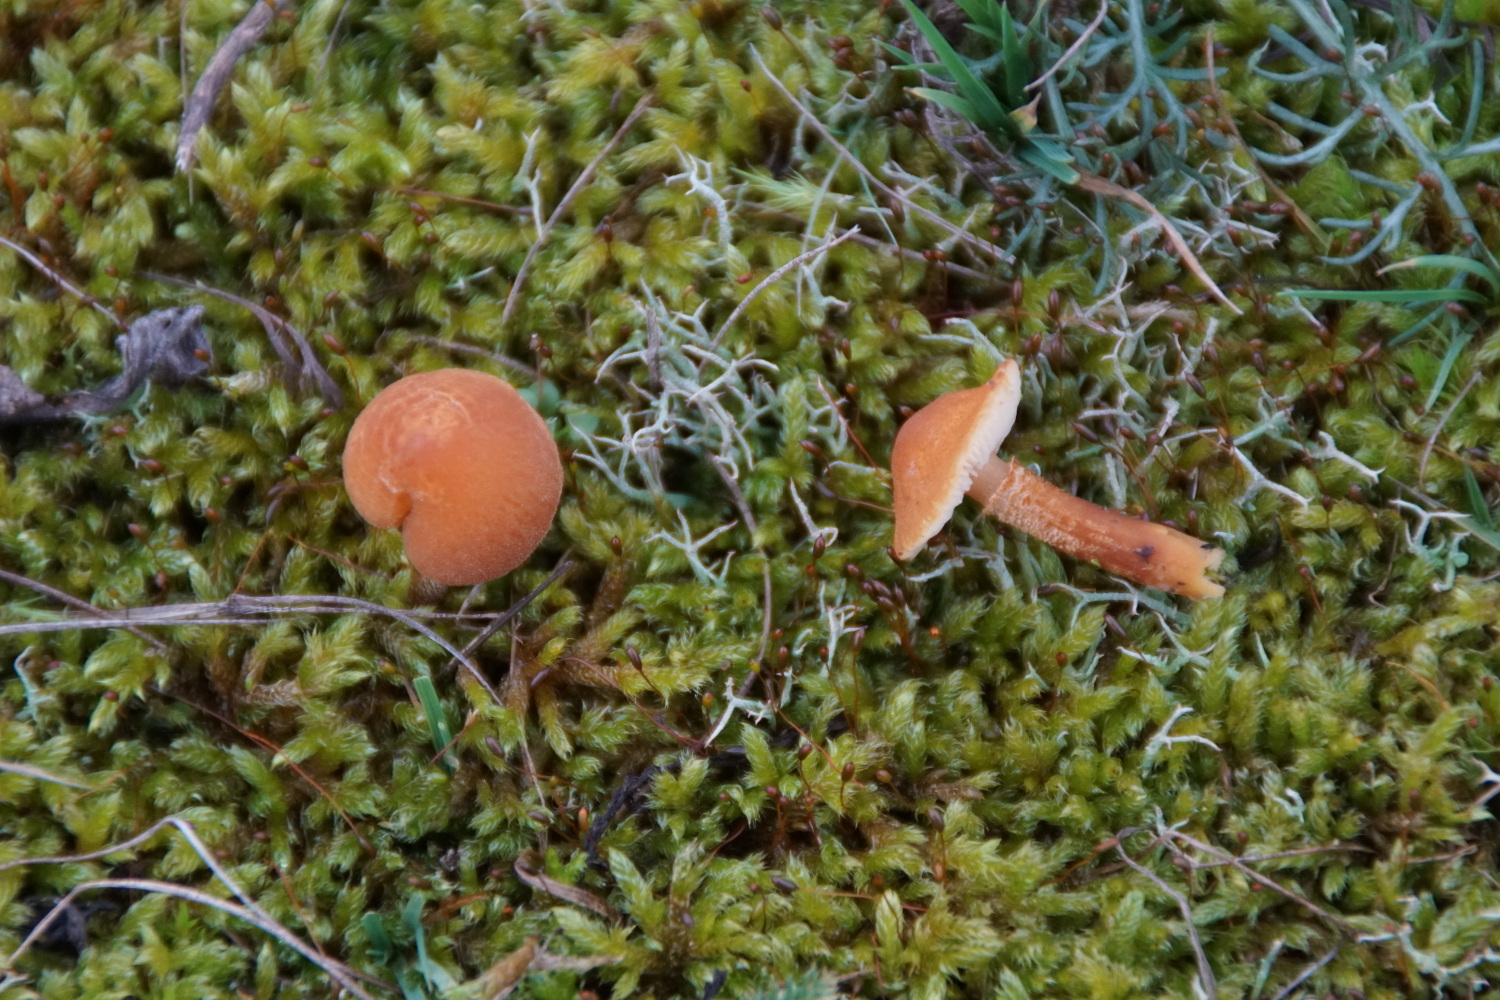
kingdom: Fungi
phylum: Basidiomycota
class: Agaricomycetes
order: Agaricales
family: Tricholomataceae
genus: Cystoderma
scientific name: Cystoderma
